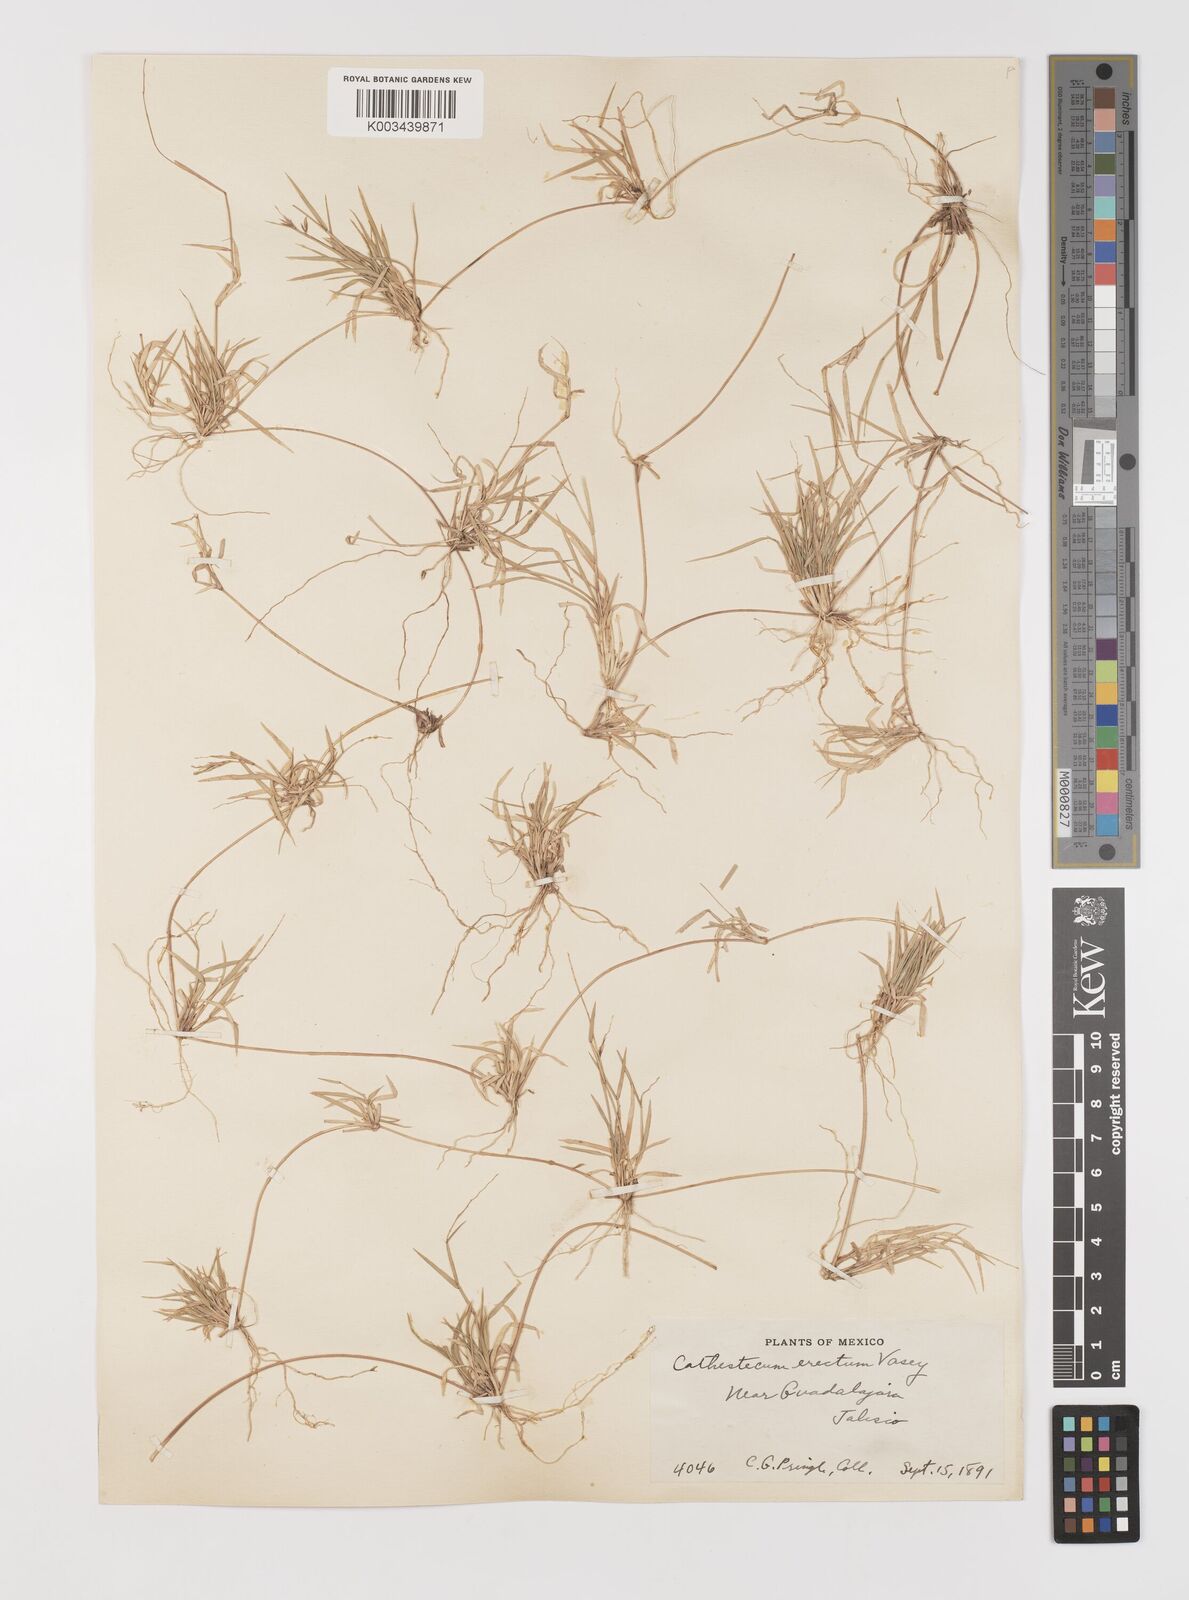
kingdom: Plantae
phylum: Tracheophyta
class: Liliopsida
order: Poales
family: Poaceae
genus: Bouteloua
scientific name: Bouteloua diversispicula
